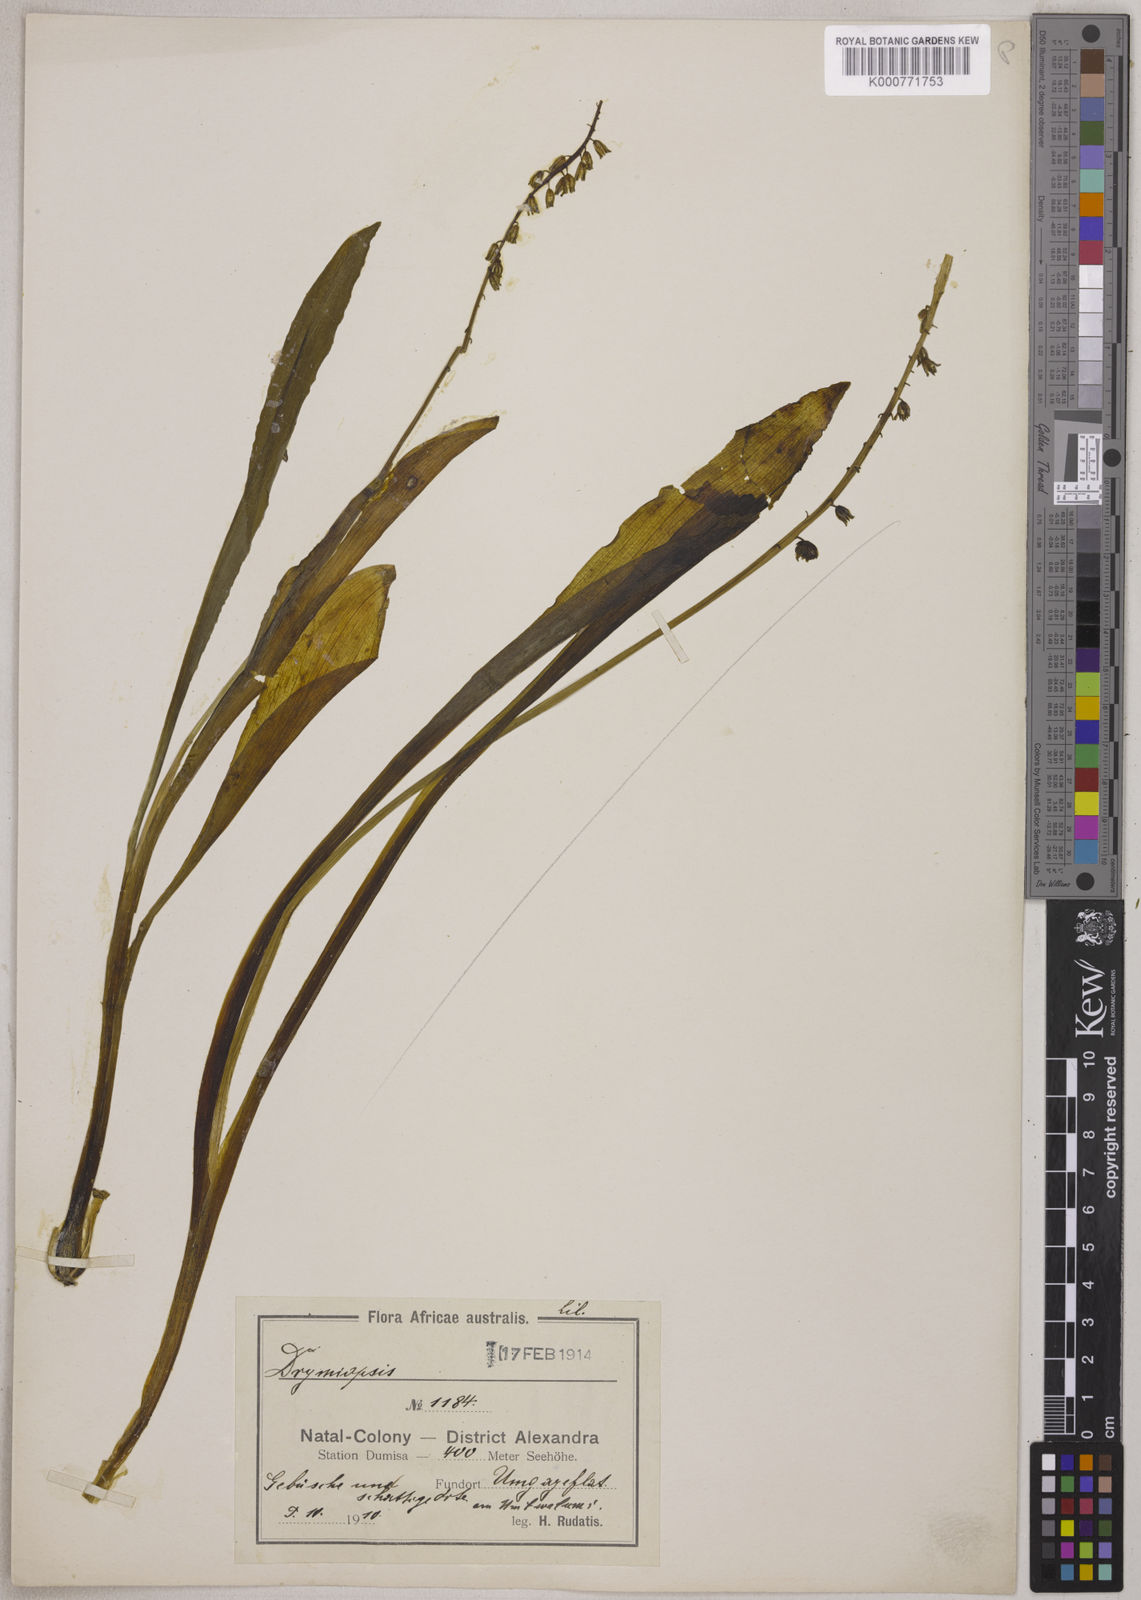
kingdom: Plantae
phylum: Tracheophyta
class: Liliopsida
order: Asparagales
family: Asparagaceae
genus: Resnova
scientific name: Resnova humifusa
